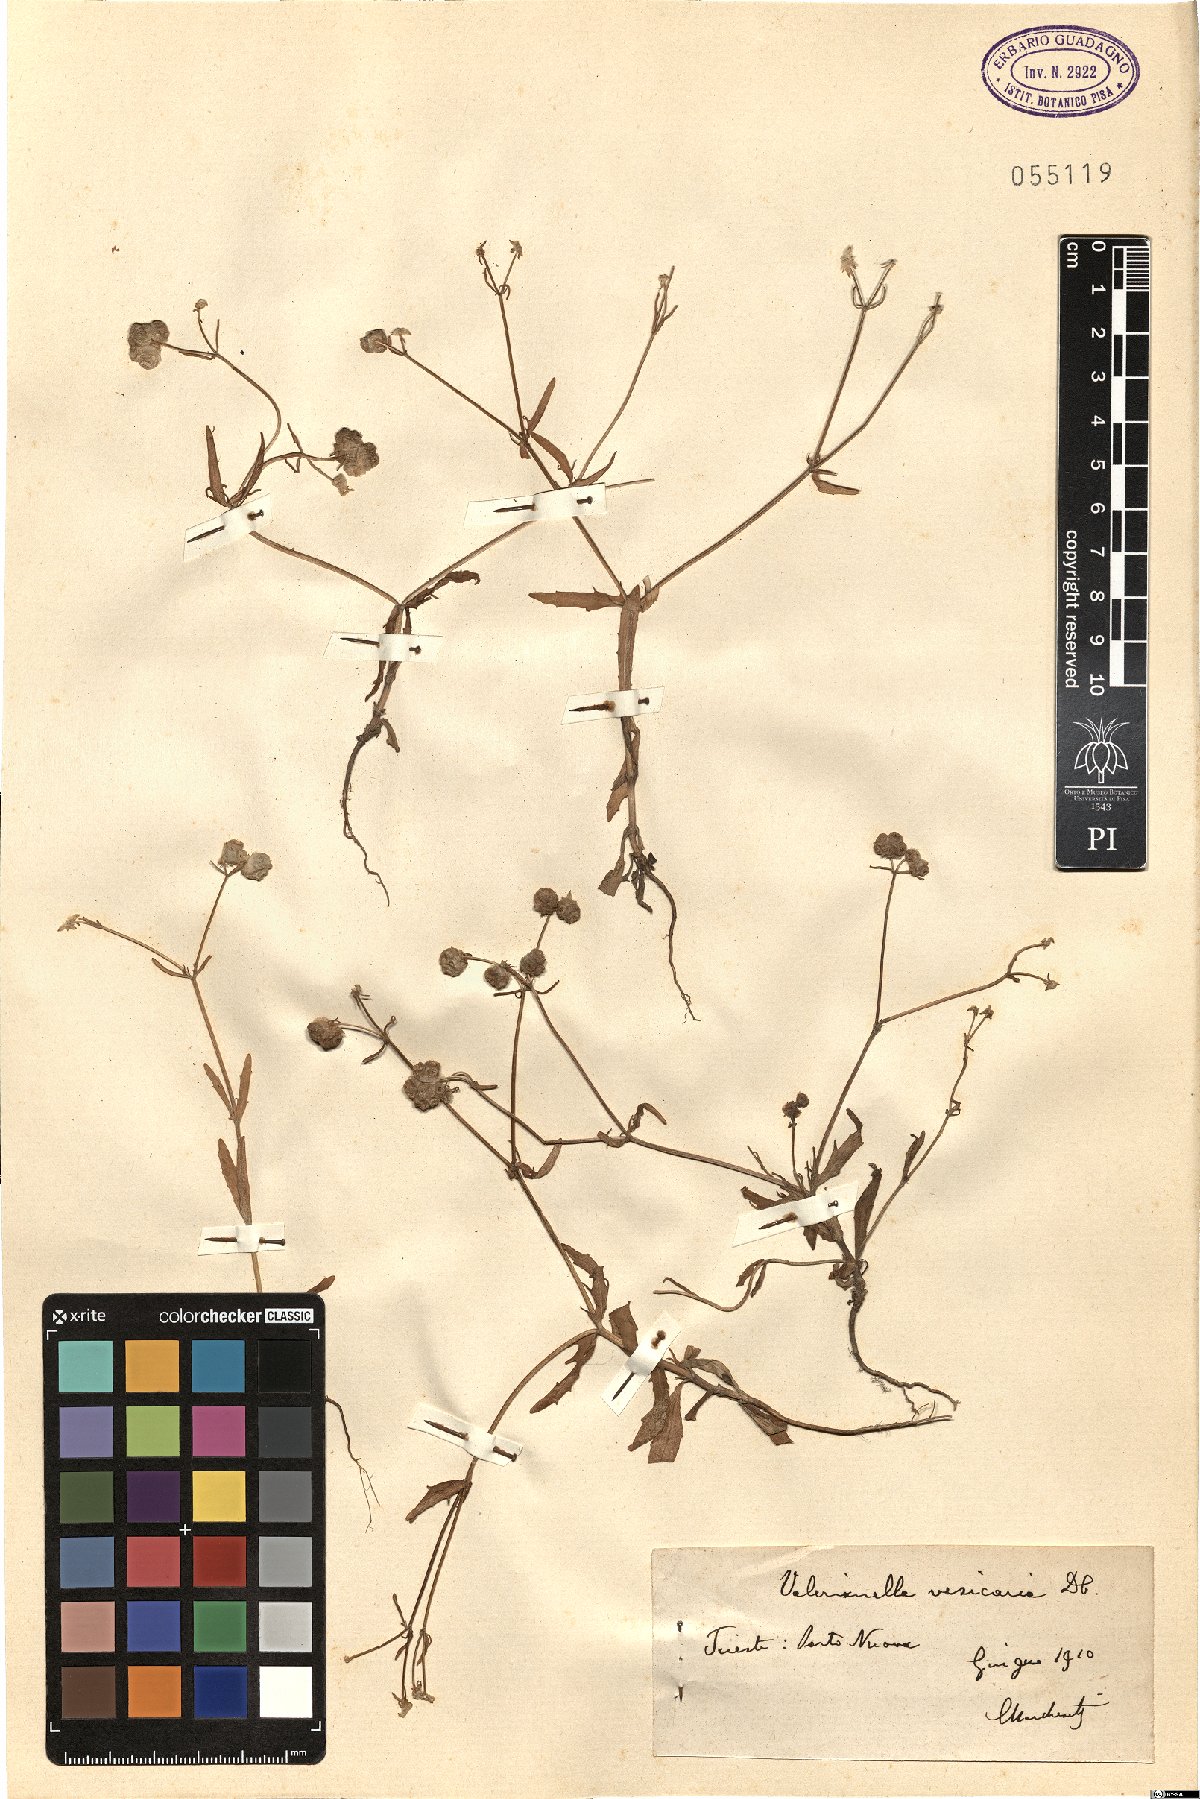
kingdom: Plantae
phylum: Tracheophyta
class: Magnoliopsida
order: Dipsacales
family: Caprifoliaceae
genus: Valerianella
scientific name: Valerianella vesicaria
